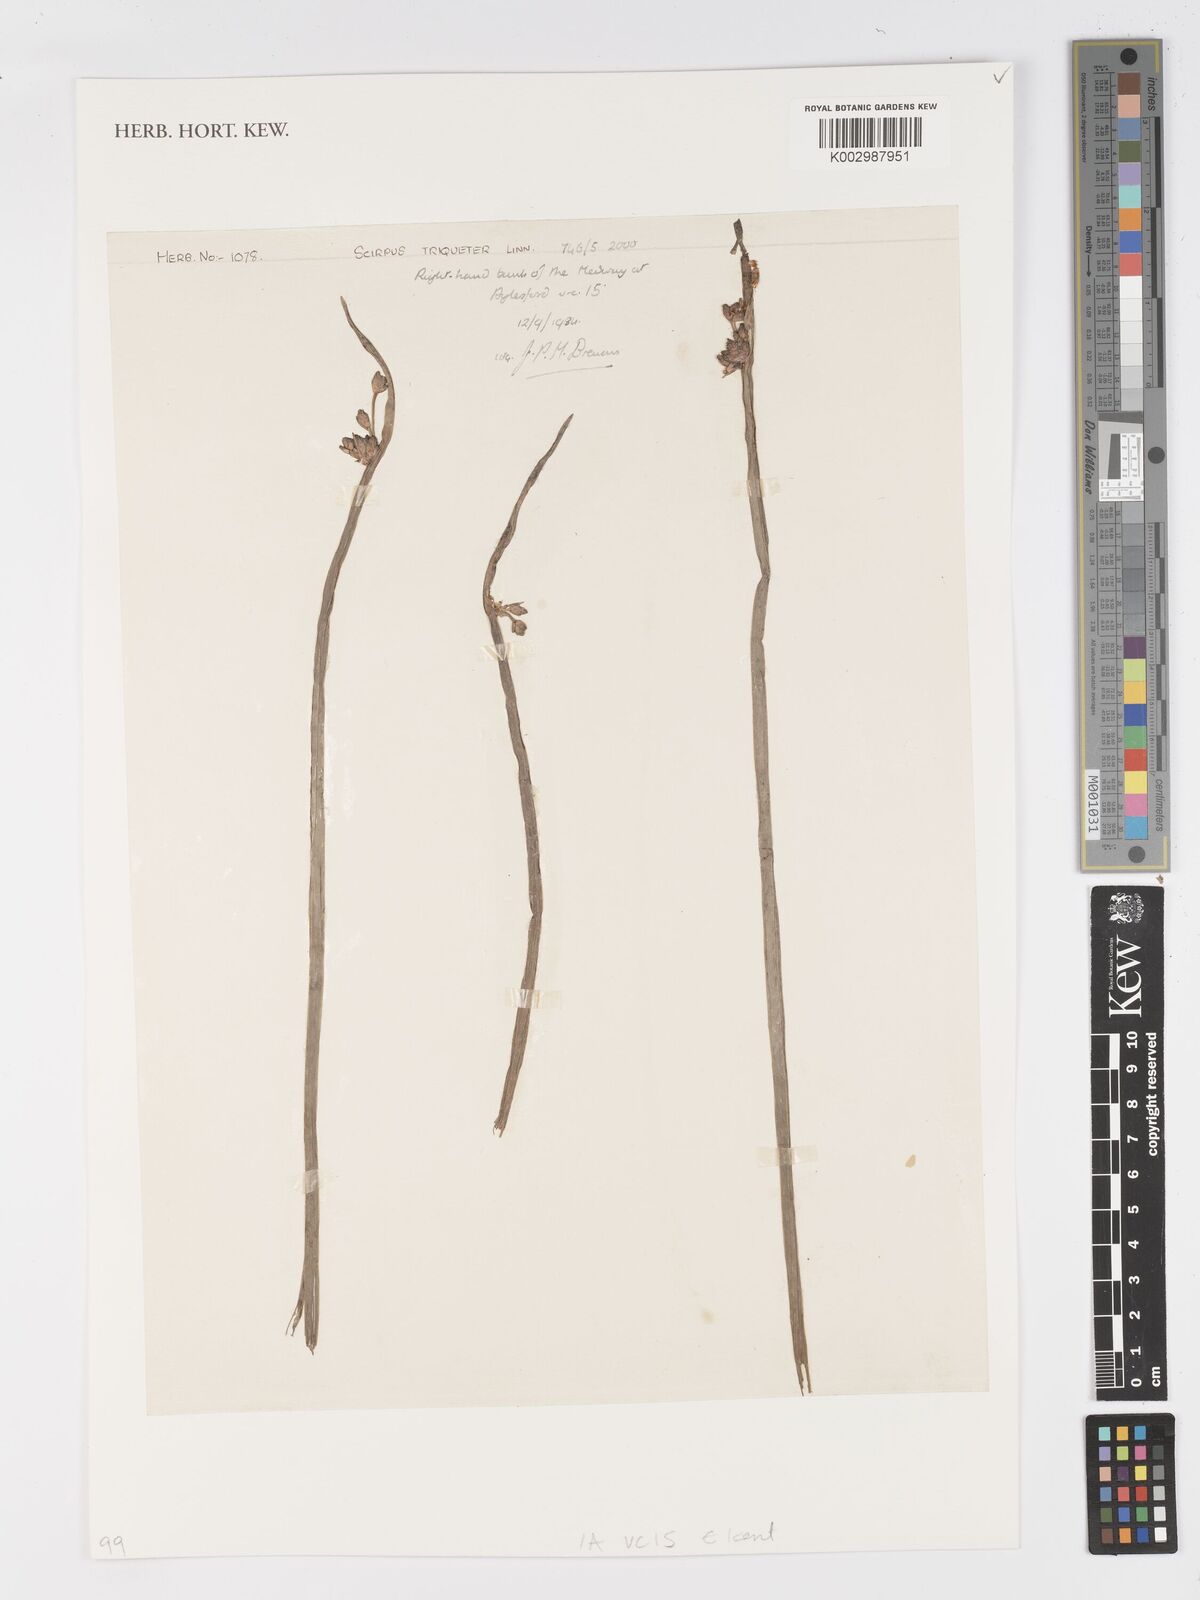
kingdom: Plantae
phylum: Tracheophyta
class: Liliopsida
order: Poales
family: Cyperaceae
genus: Schoenoplectus
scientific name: Schoenoplectus triqueter
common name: Triangular club-rush
